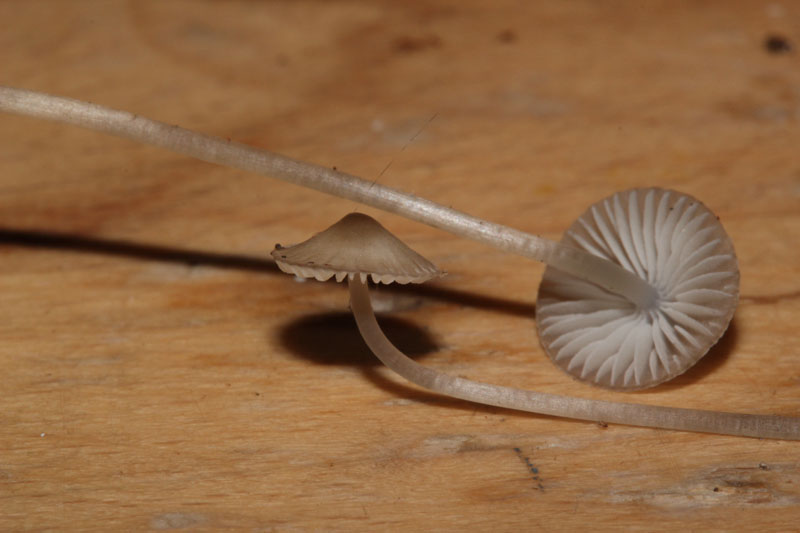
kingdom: Fungi
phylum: Basidiomycota
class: Agaricomycetes
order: Agaricales
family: Mycenaceae
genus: Mycena
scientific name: Mycena vitilis
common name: blankstokket huesvamp
